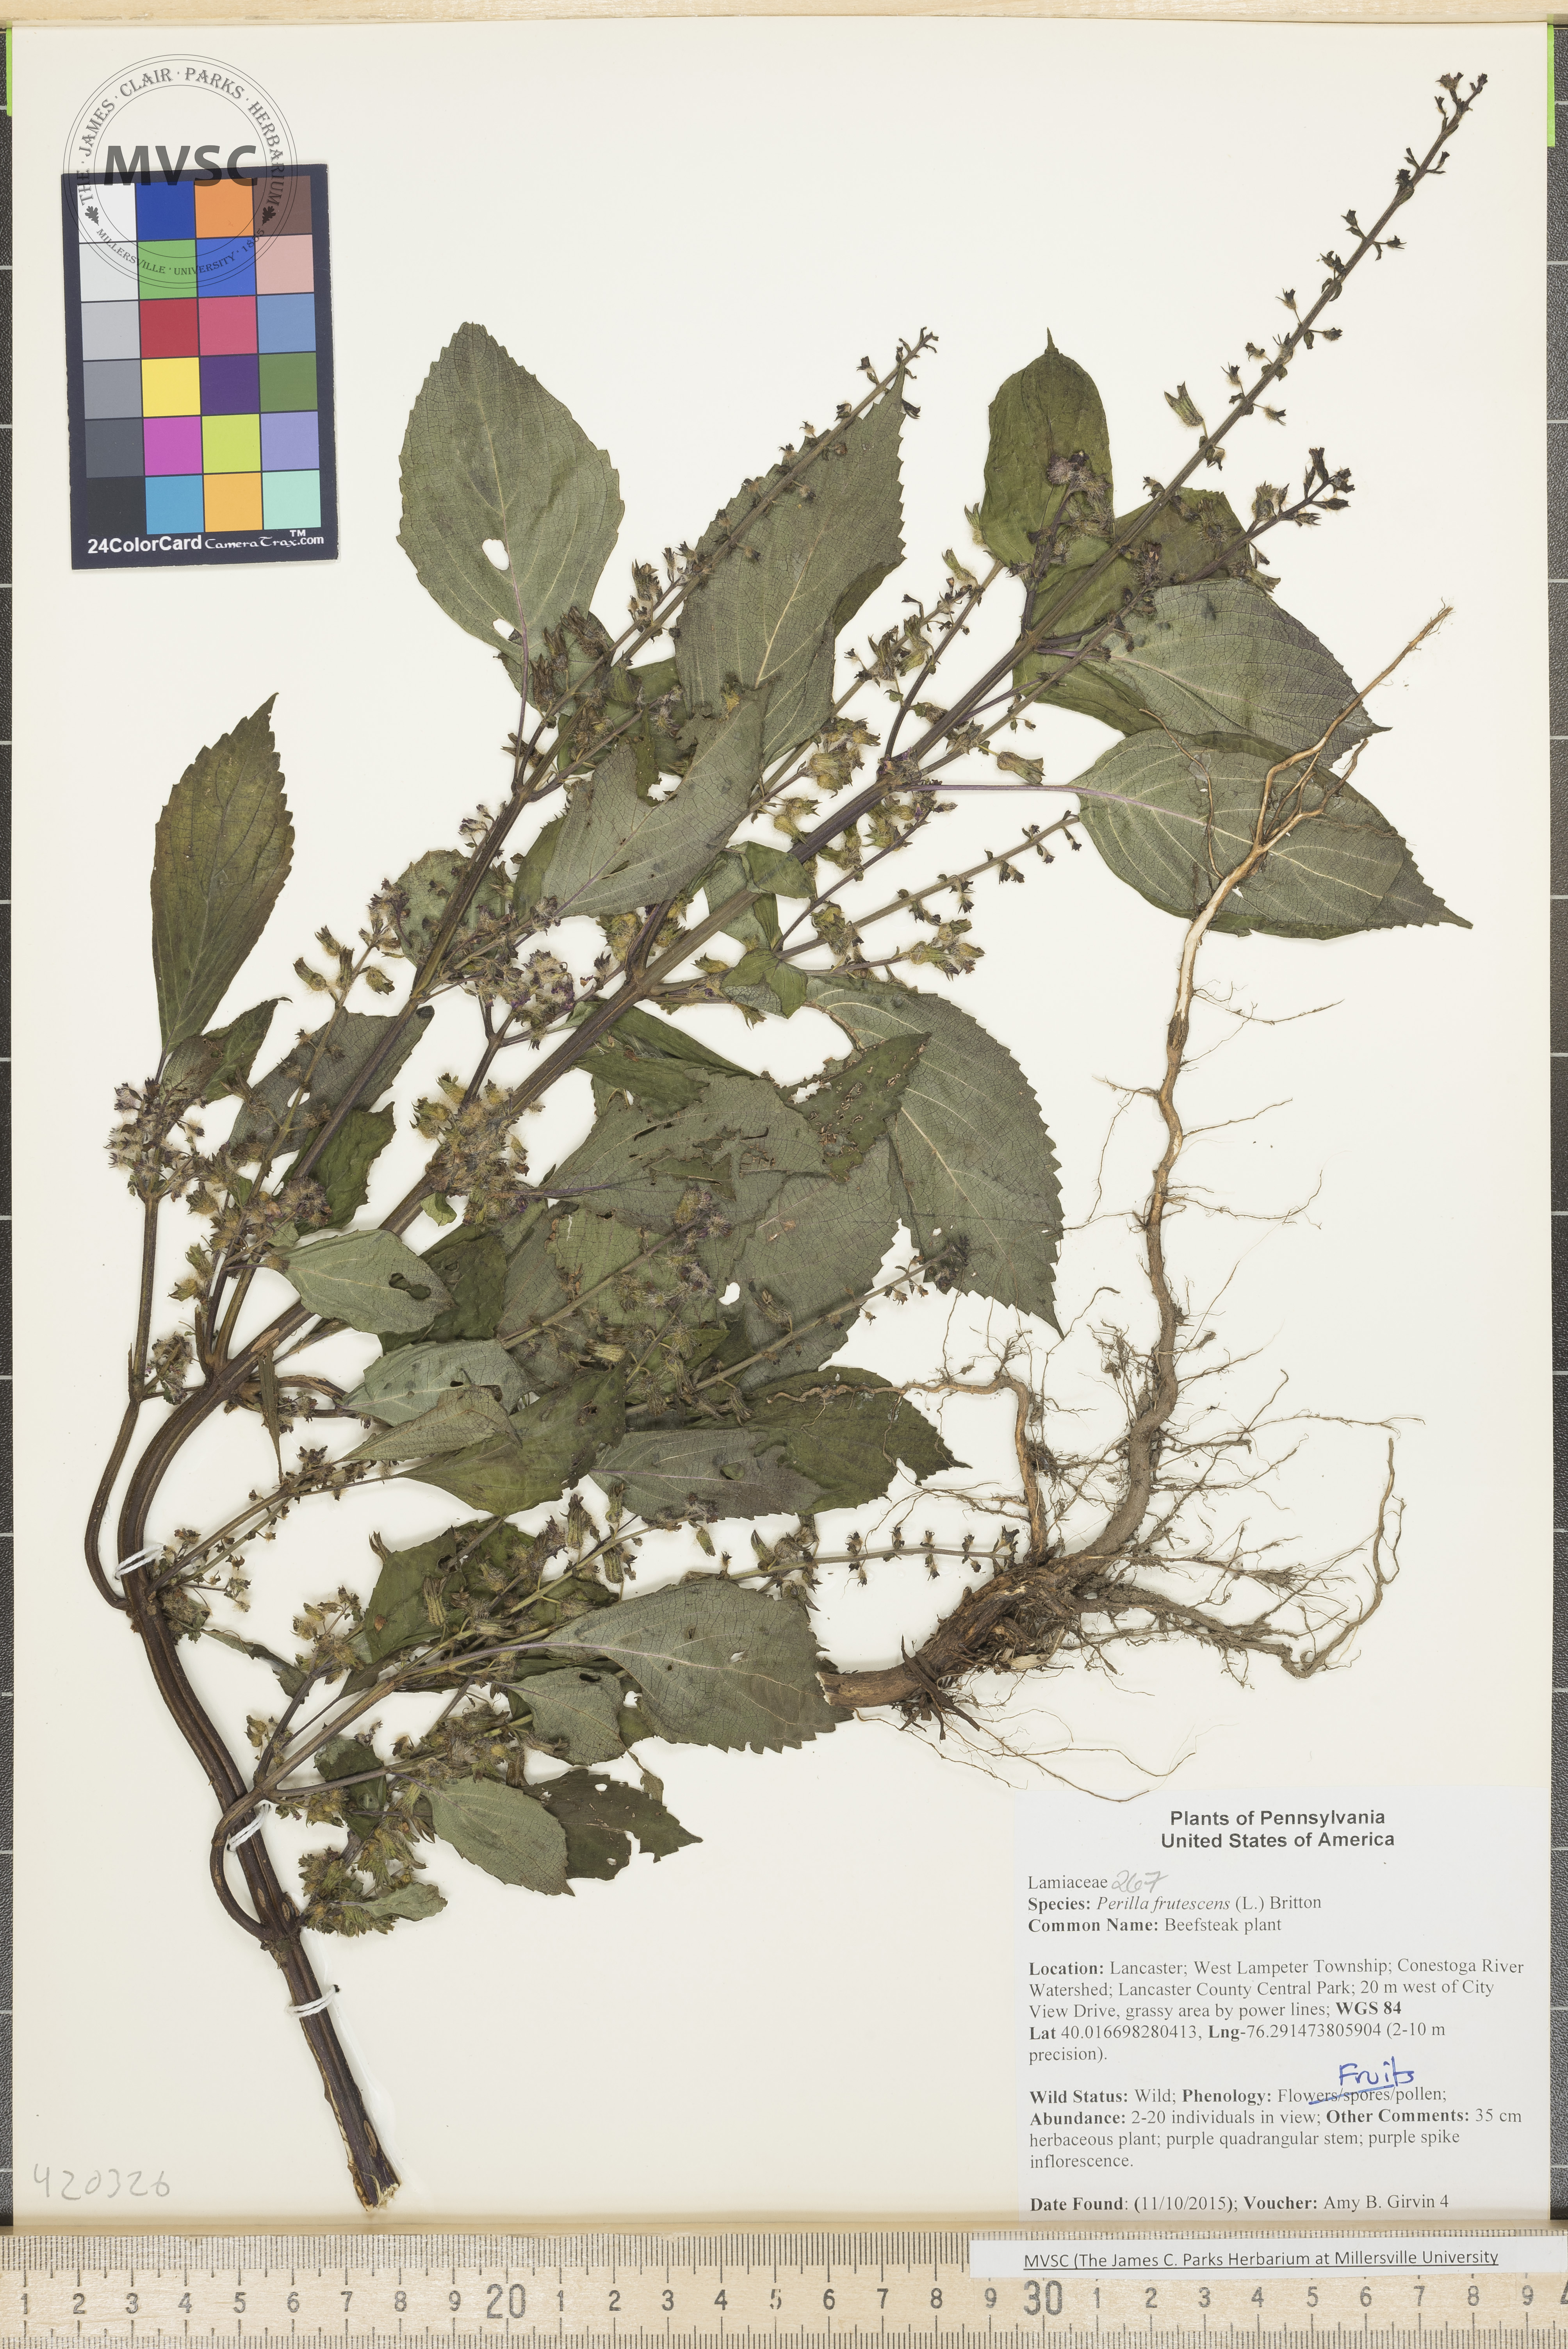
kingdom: Plantae
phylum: Tracheophyta
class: Magnoliopsida
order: Lamiales
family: Lamiaceae
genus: Perilla
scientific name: Perilla frutescens
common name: Beefsteak plant
